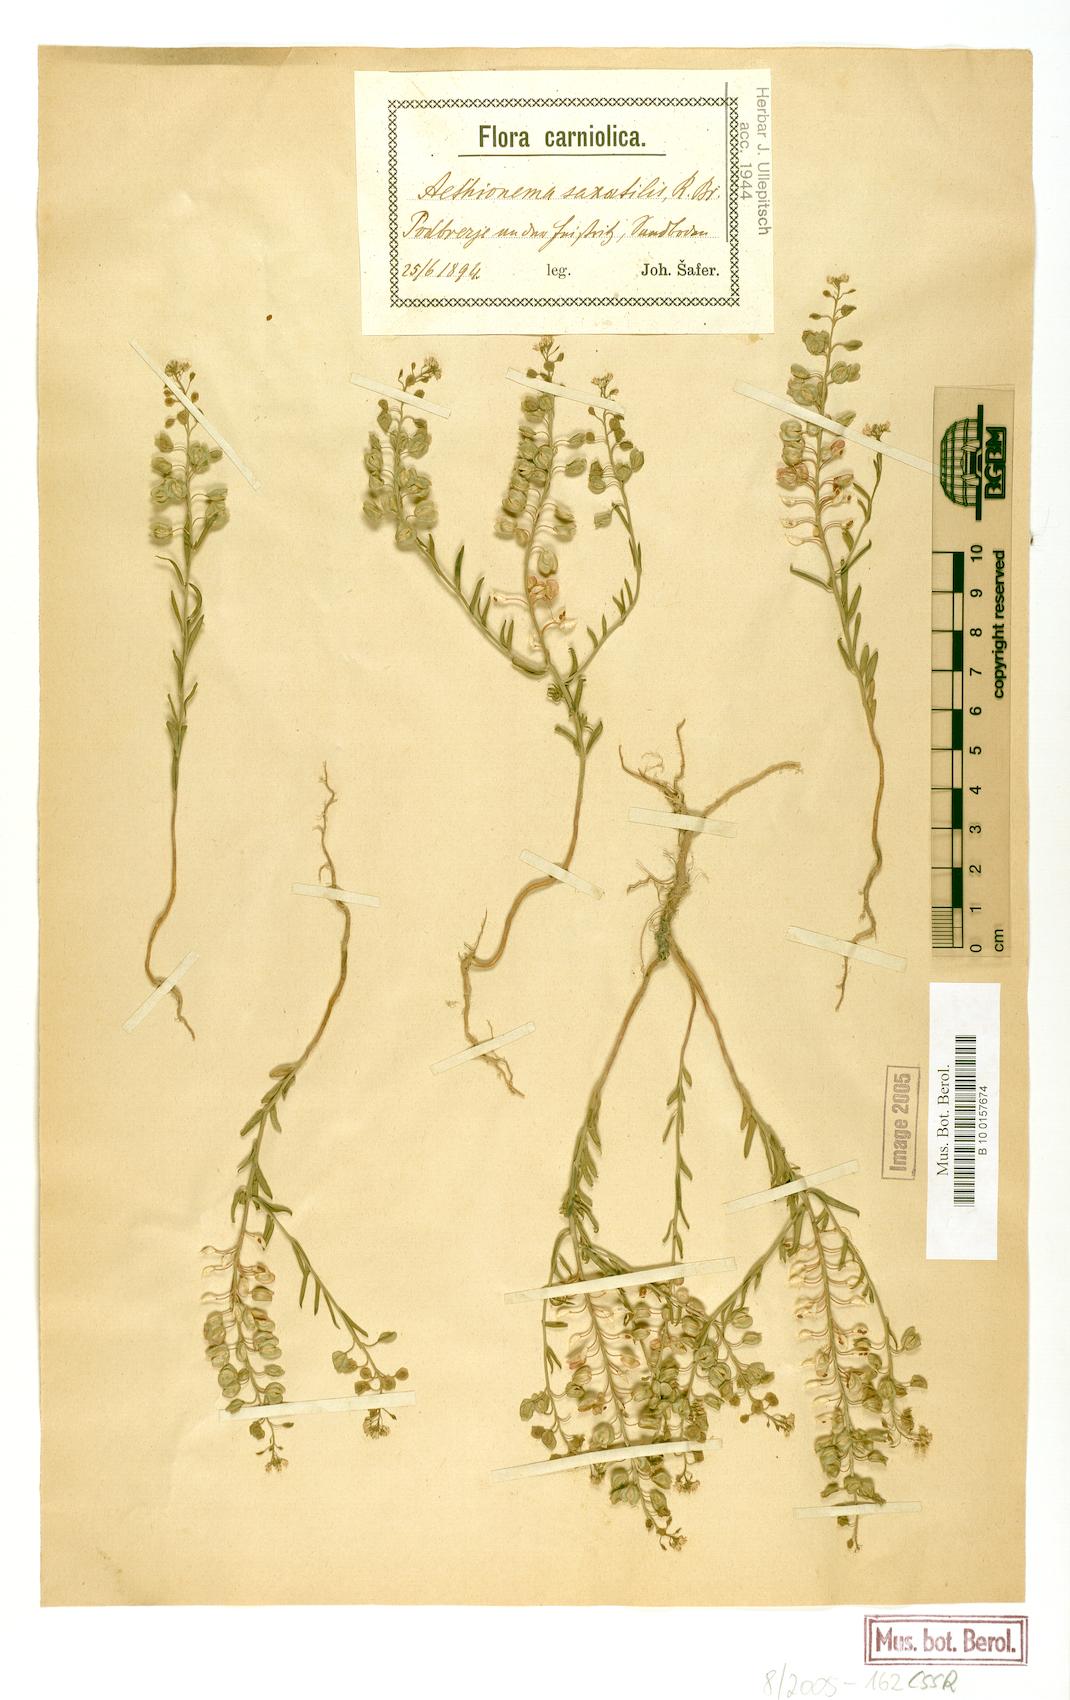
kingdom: Plantae
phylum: Tracheophyta
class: Magnoliopsida
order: Brassicales
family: Brassicaceae
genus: Aethionema
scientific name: Aethionema saxatile
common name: Burnt candytuft
